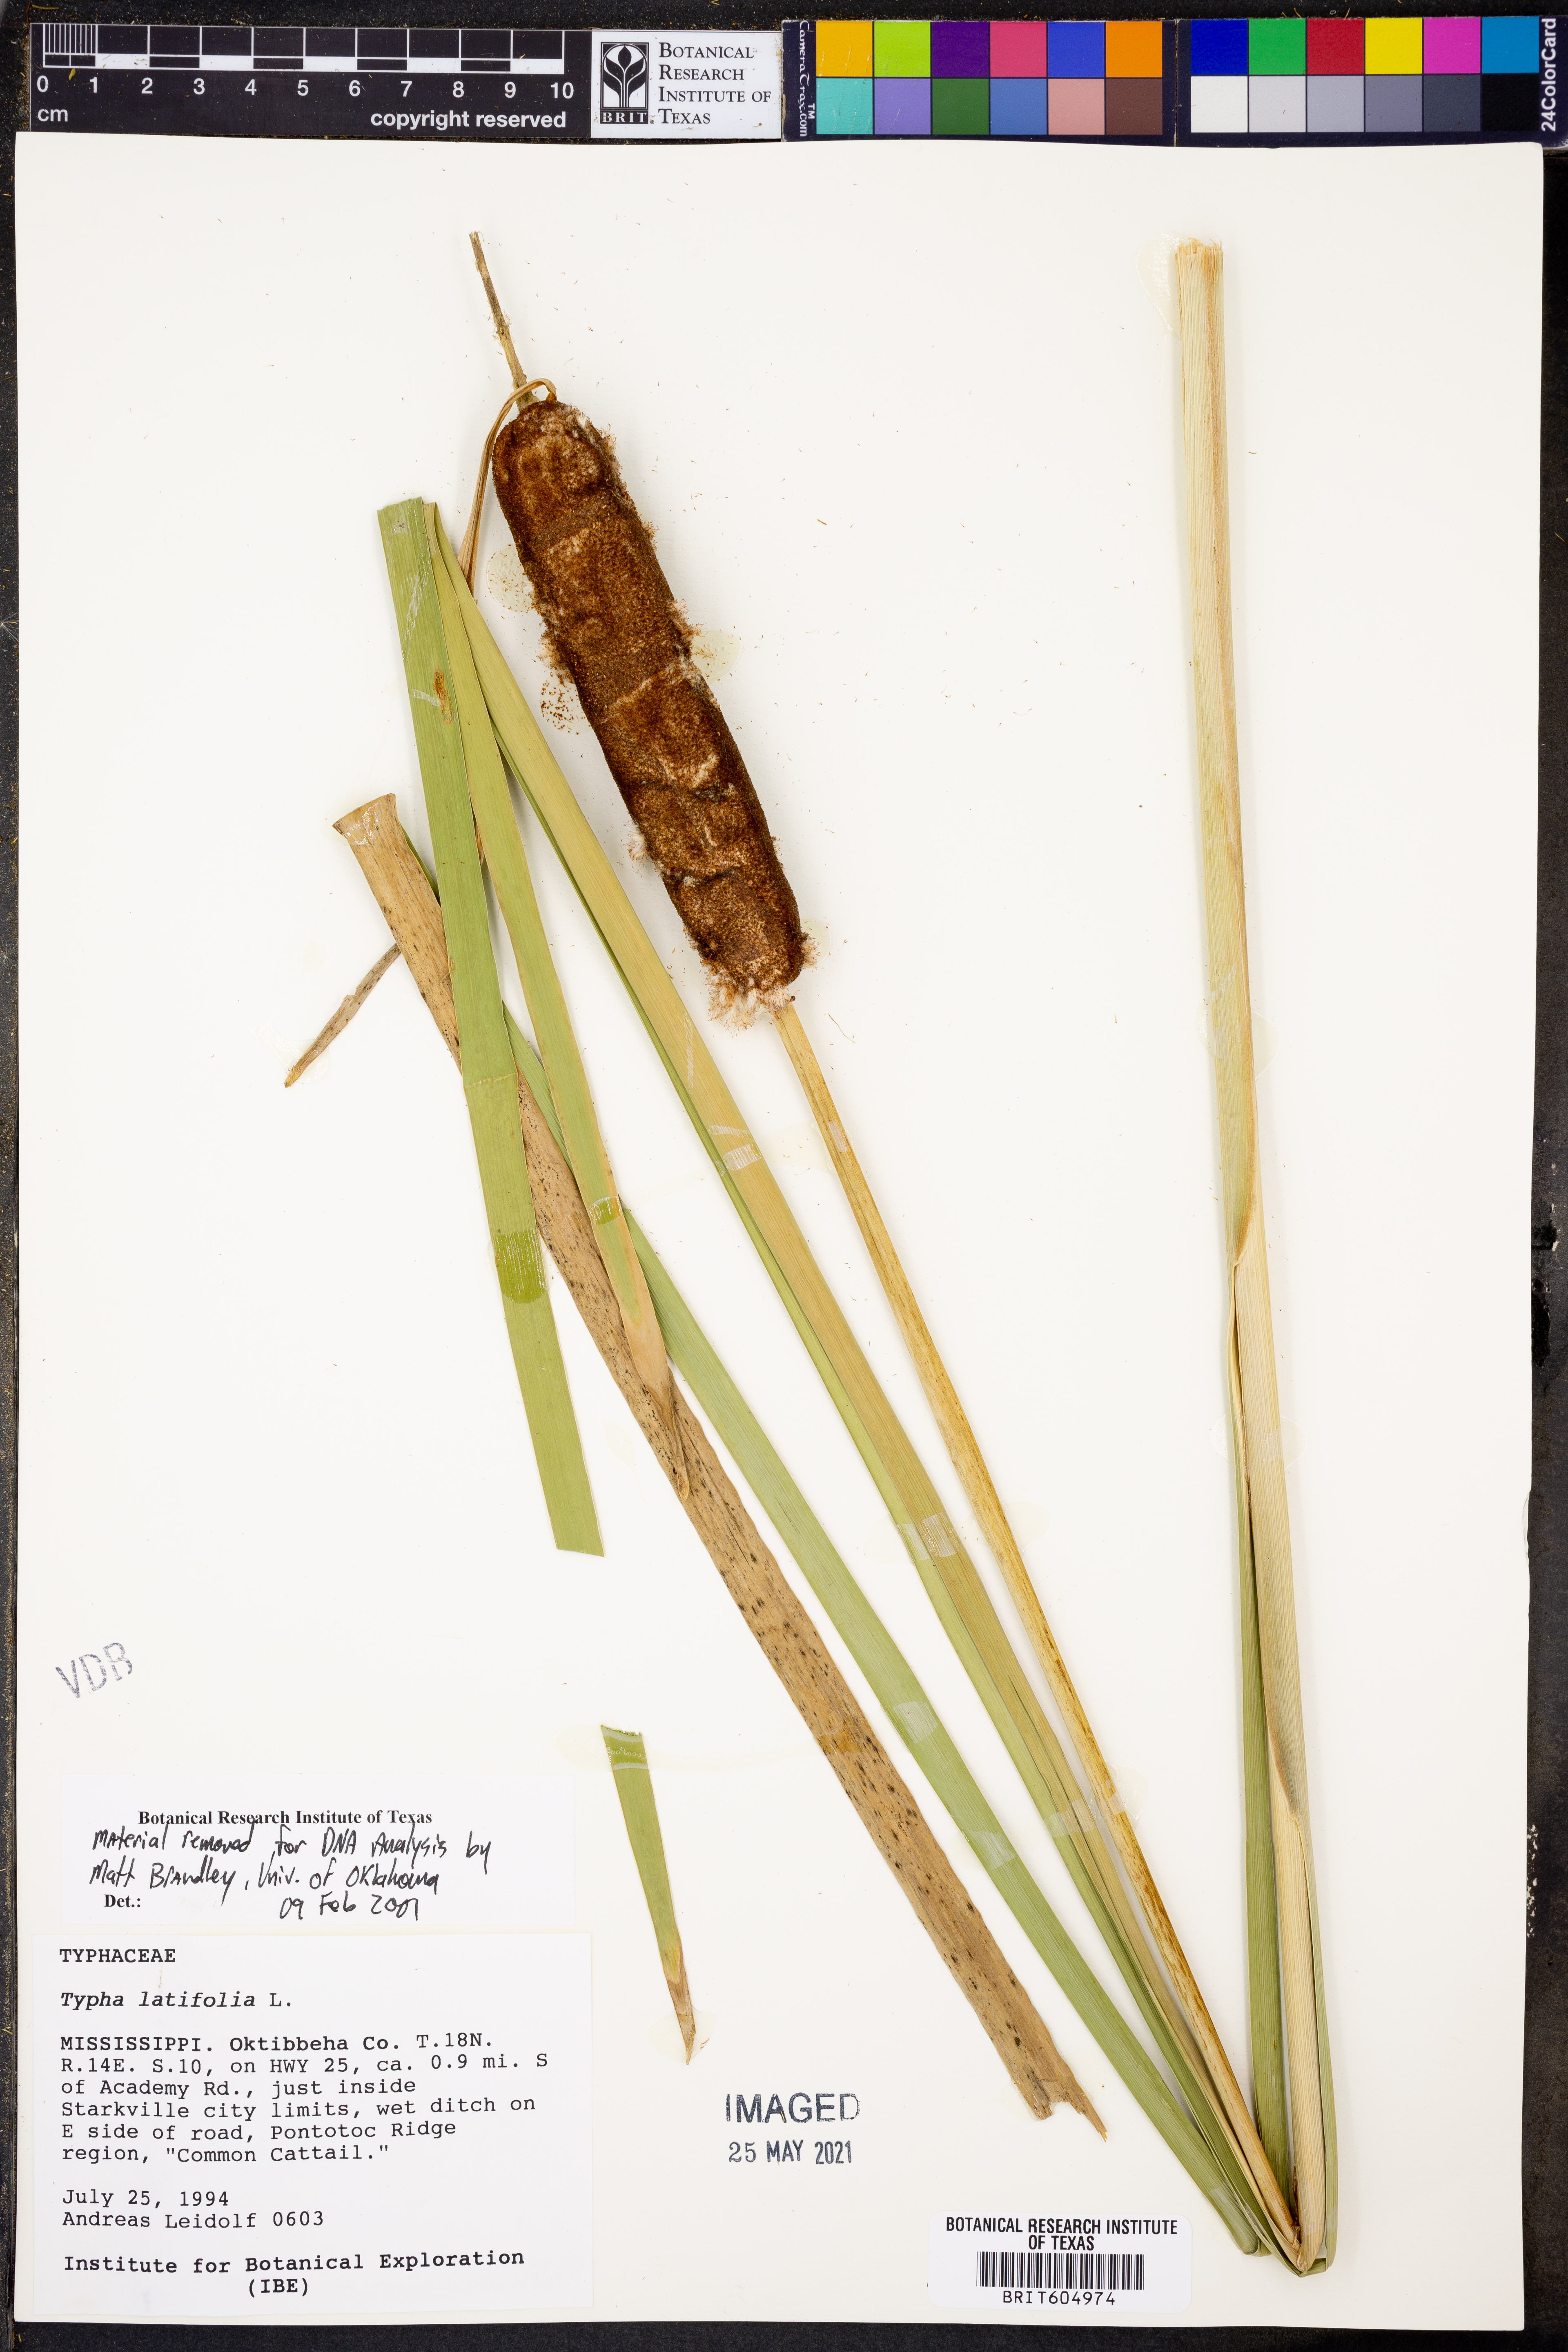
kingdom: Plantae
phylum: Tracheophyta
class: Liliopsida
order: Poales
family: Typhaceae
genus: Typha
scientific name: Typha latifolia
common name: Broadleaf cattail
